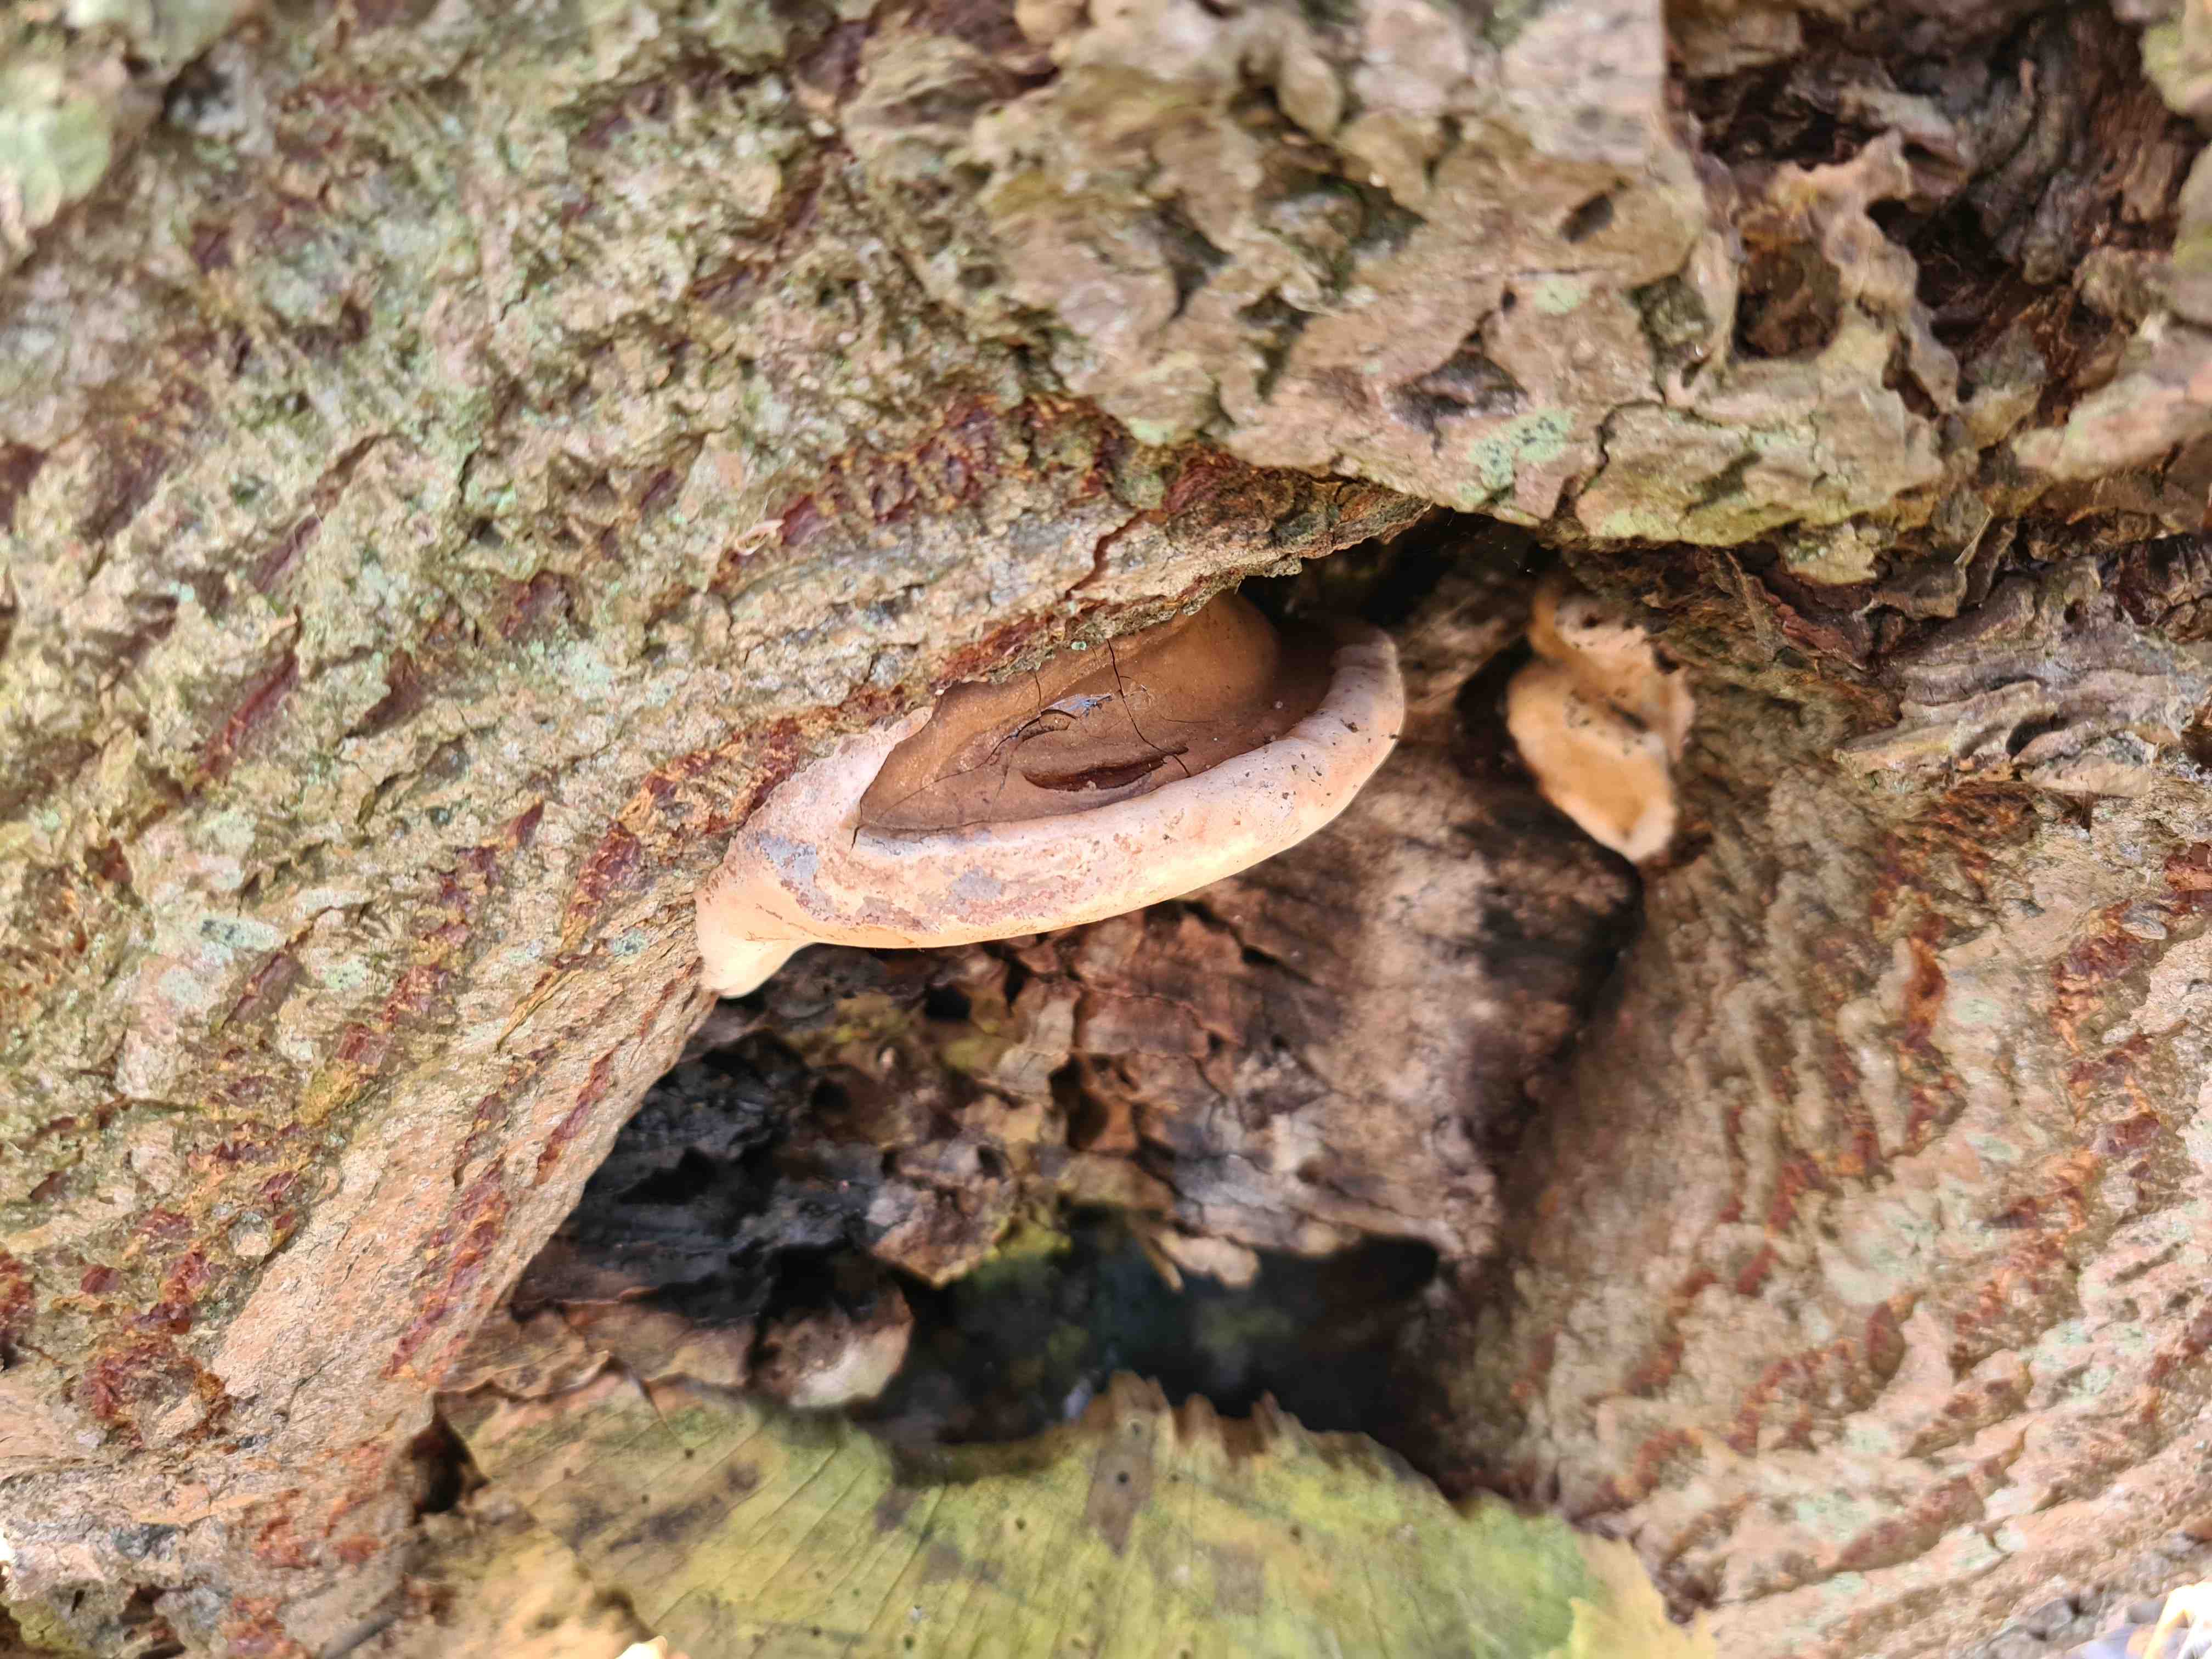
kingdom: Fungi
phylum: Basidiomycota
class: Agaricomycetes
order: Polyporales
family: Polyporaceae
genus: Ganoderma
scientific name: Ganoderma applanatum
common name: flad lakporesvamp
